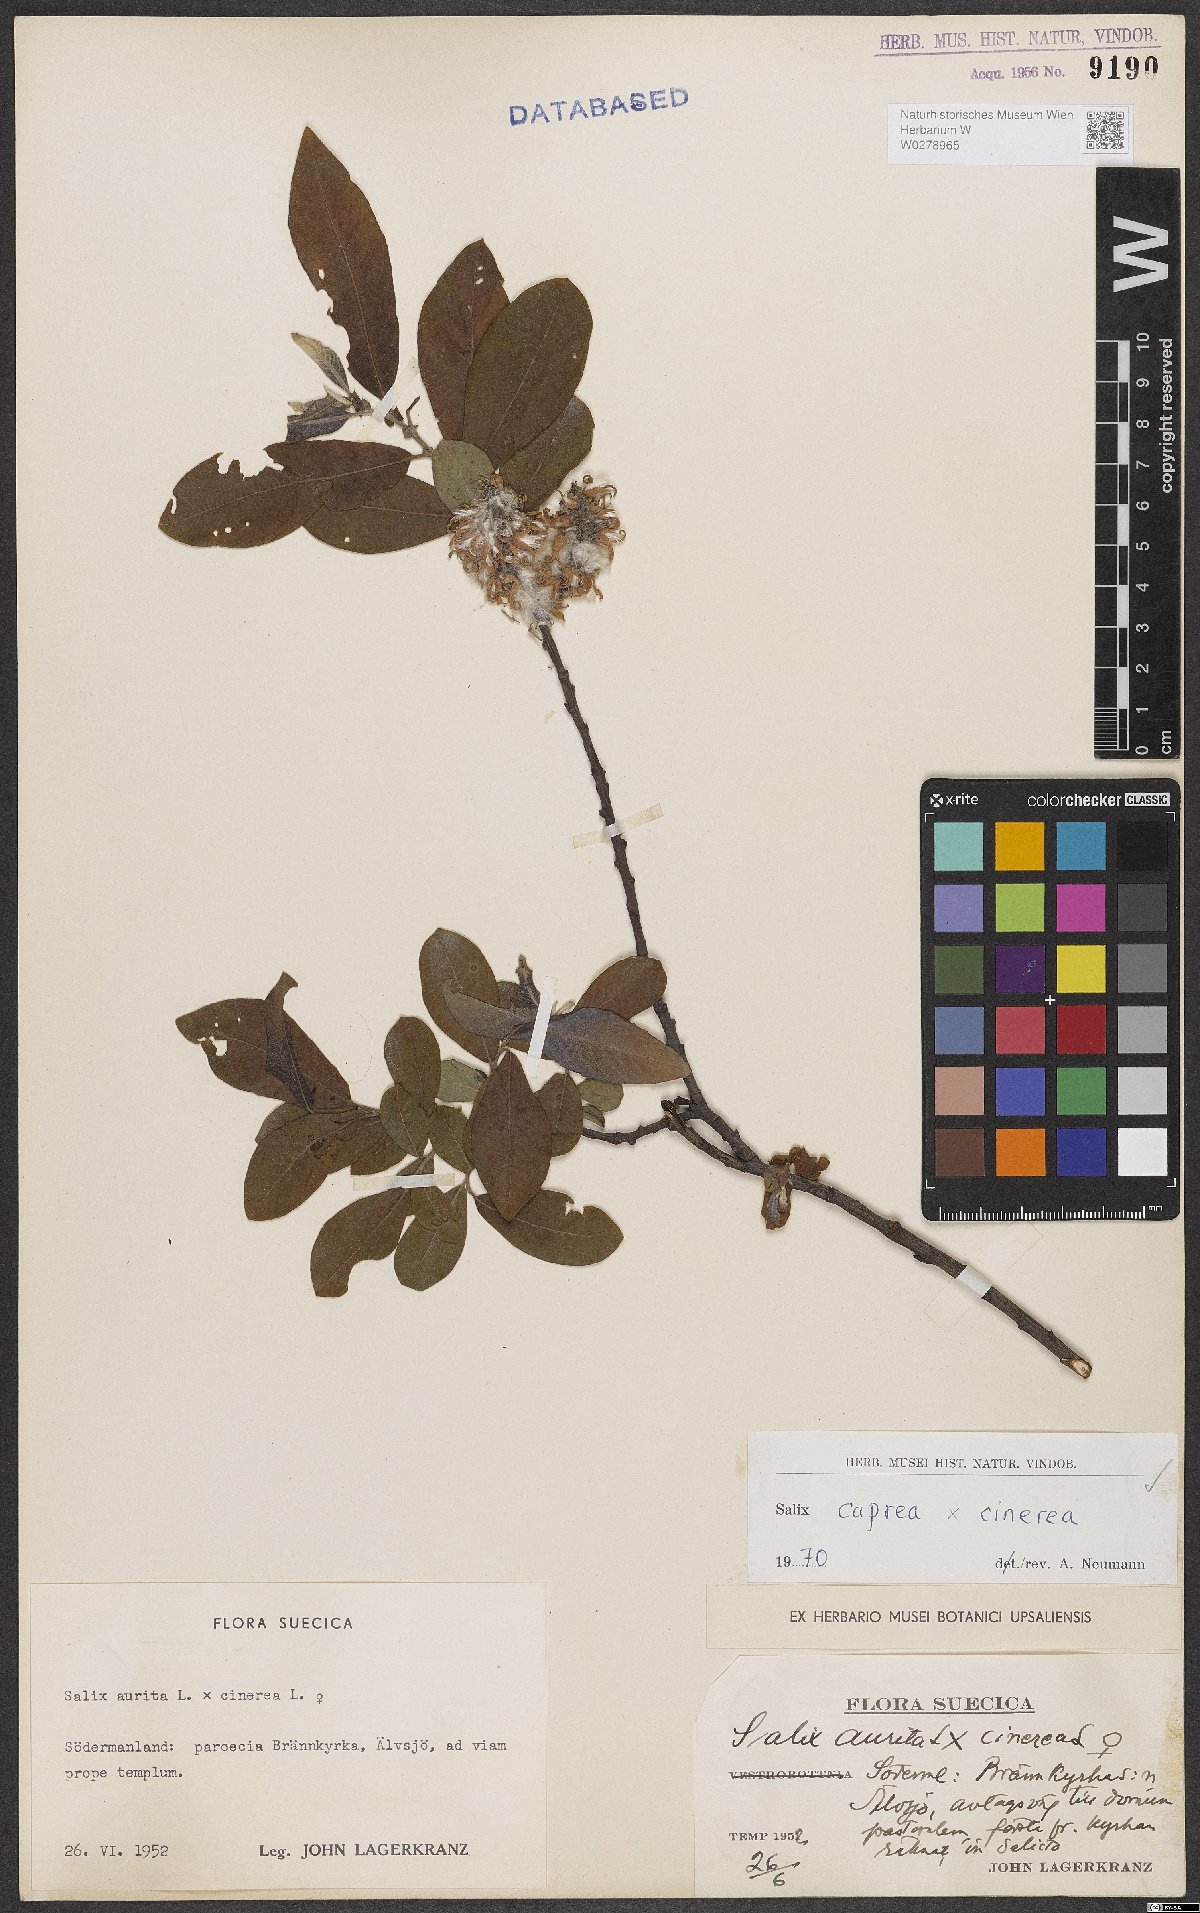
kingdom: Plantae
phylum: Tracheophyta
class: Magnoliopsida
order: Malpighiales
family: Salicaceae
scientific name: Salicaceae
